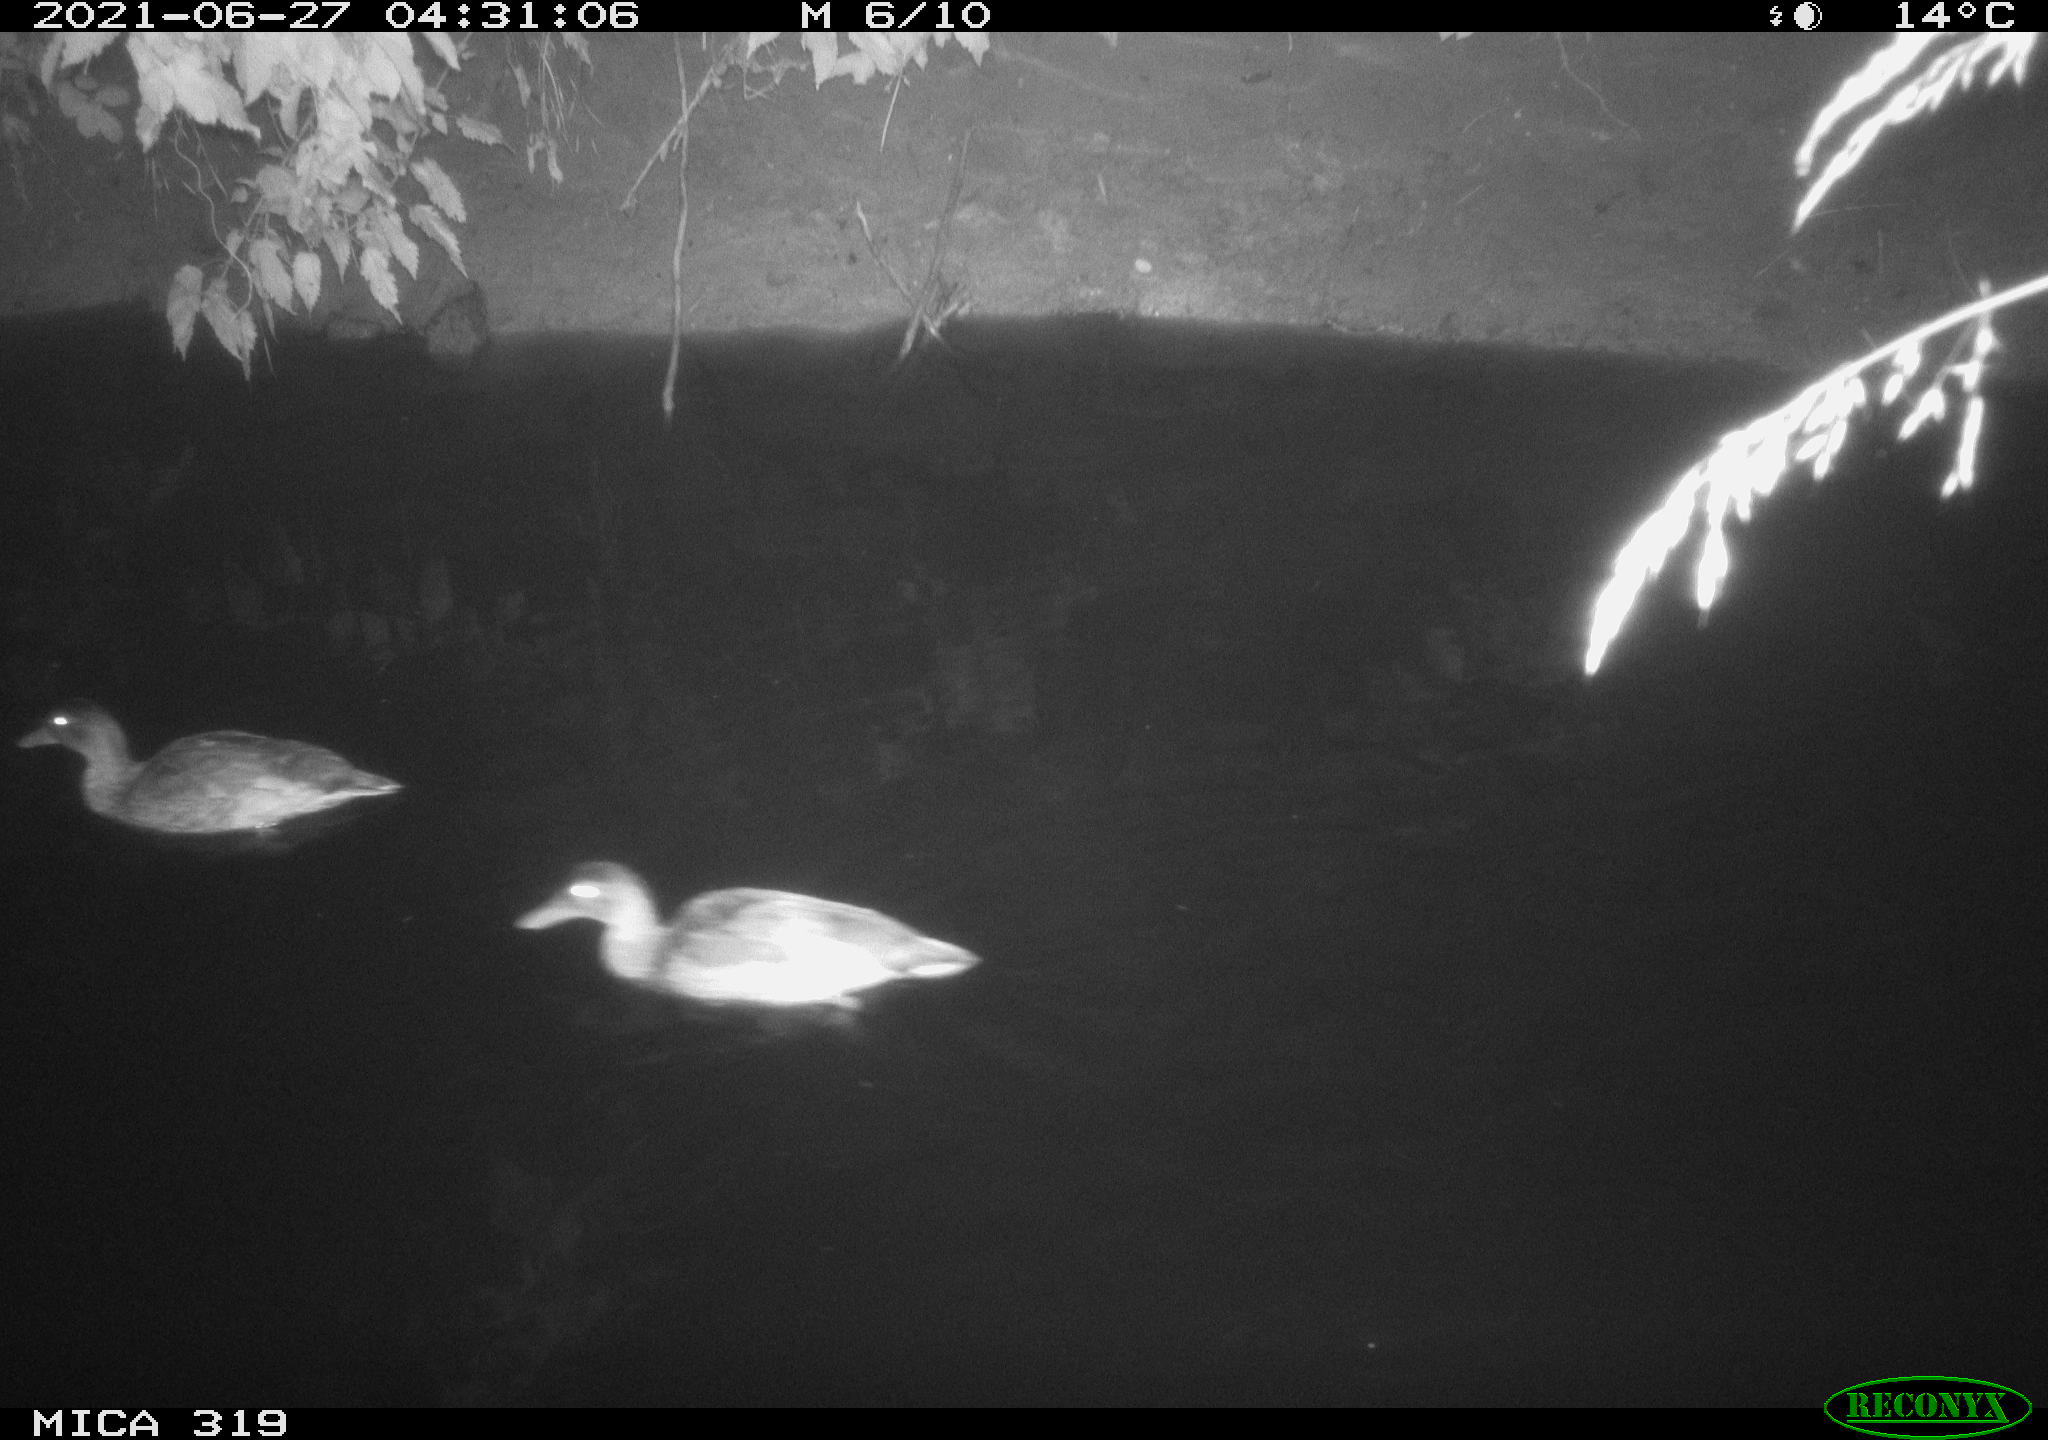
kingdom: Animalia
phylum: Chordata
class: Aves
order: Anseriformes
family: Anatidae
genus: Anas
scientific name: Anas platyrhynchos
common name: Mallard
